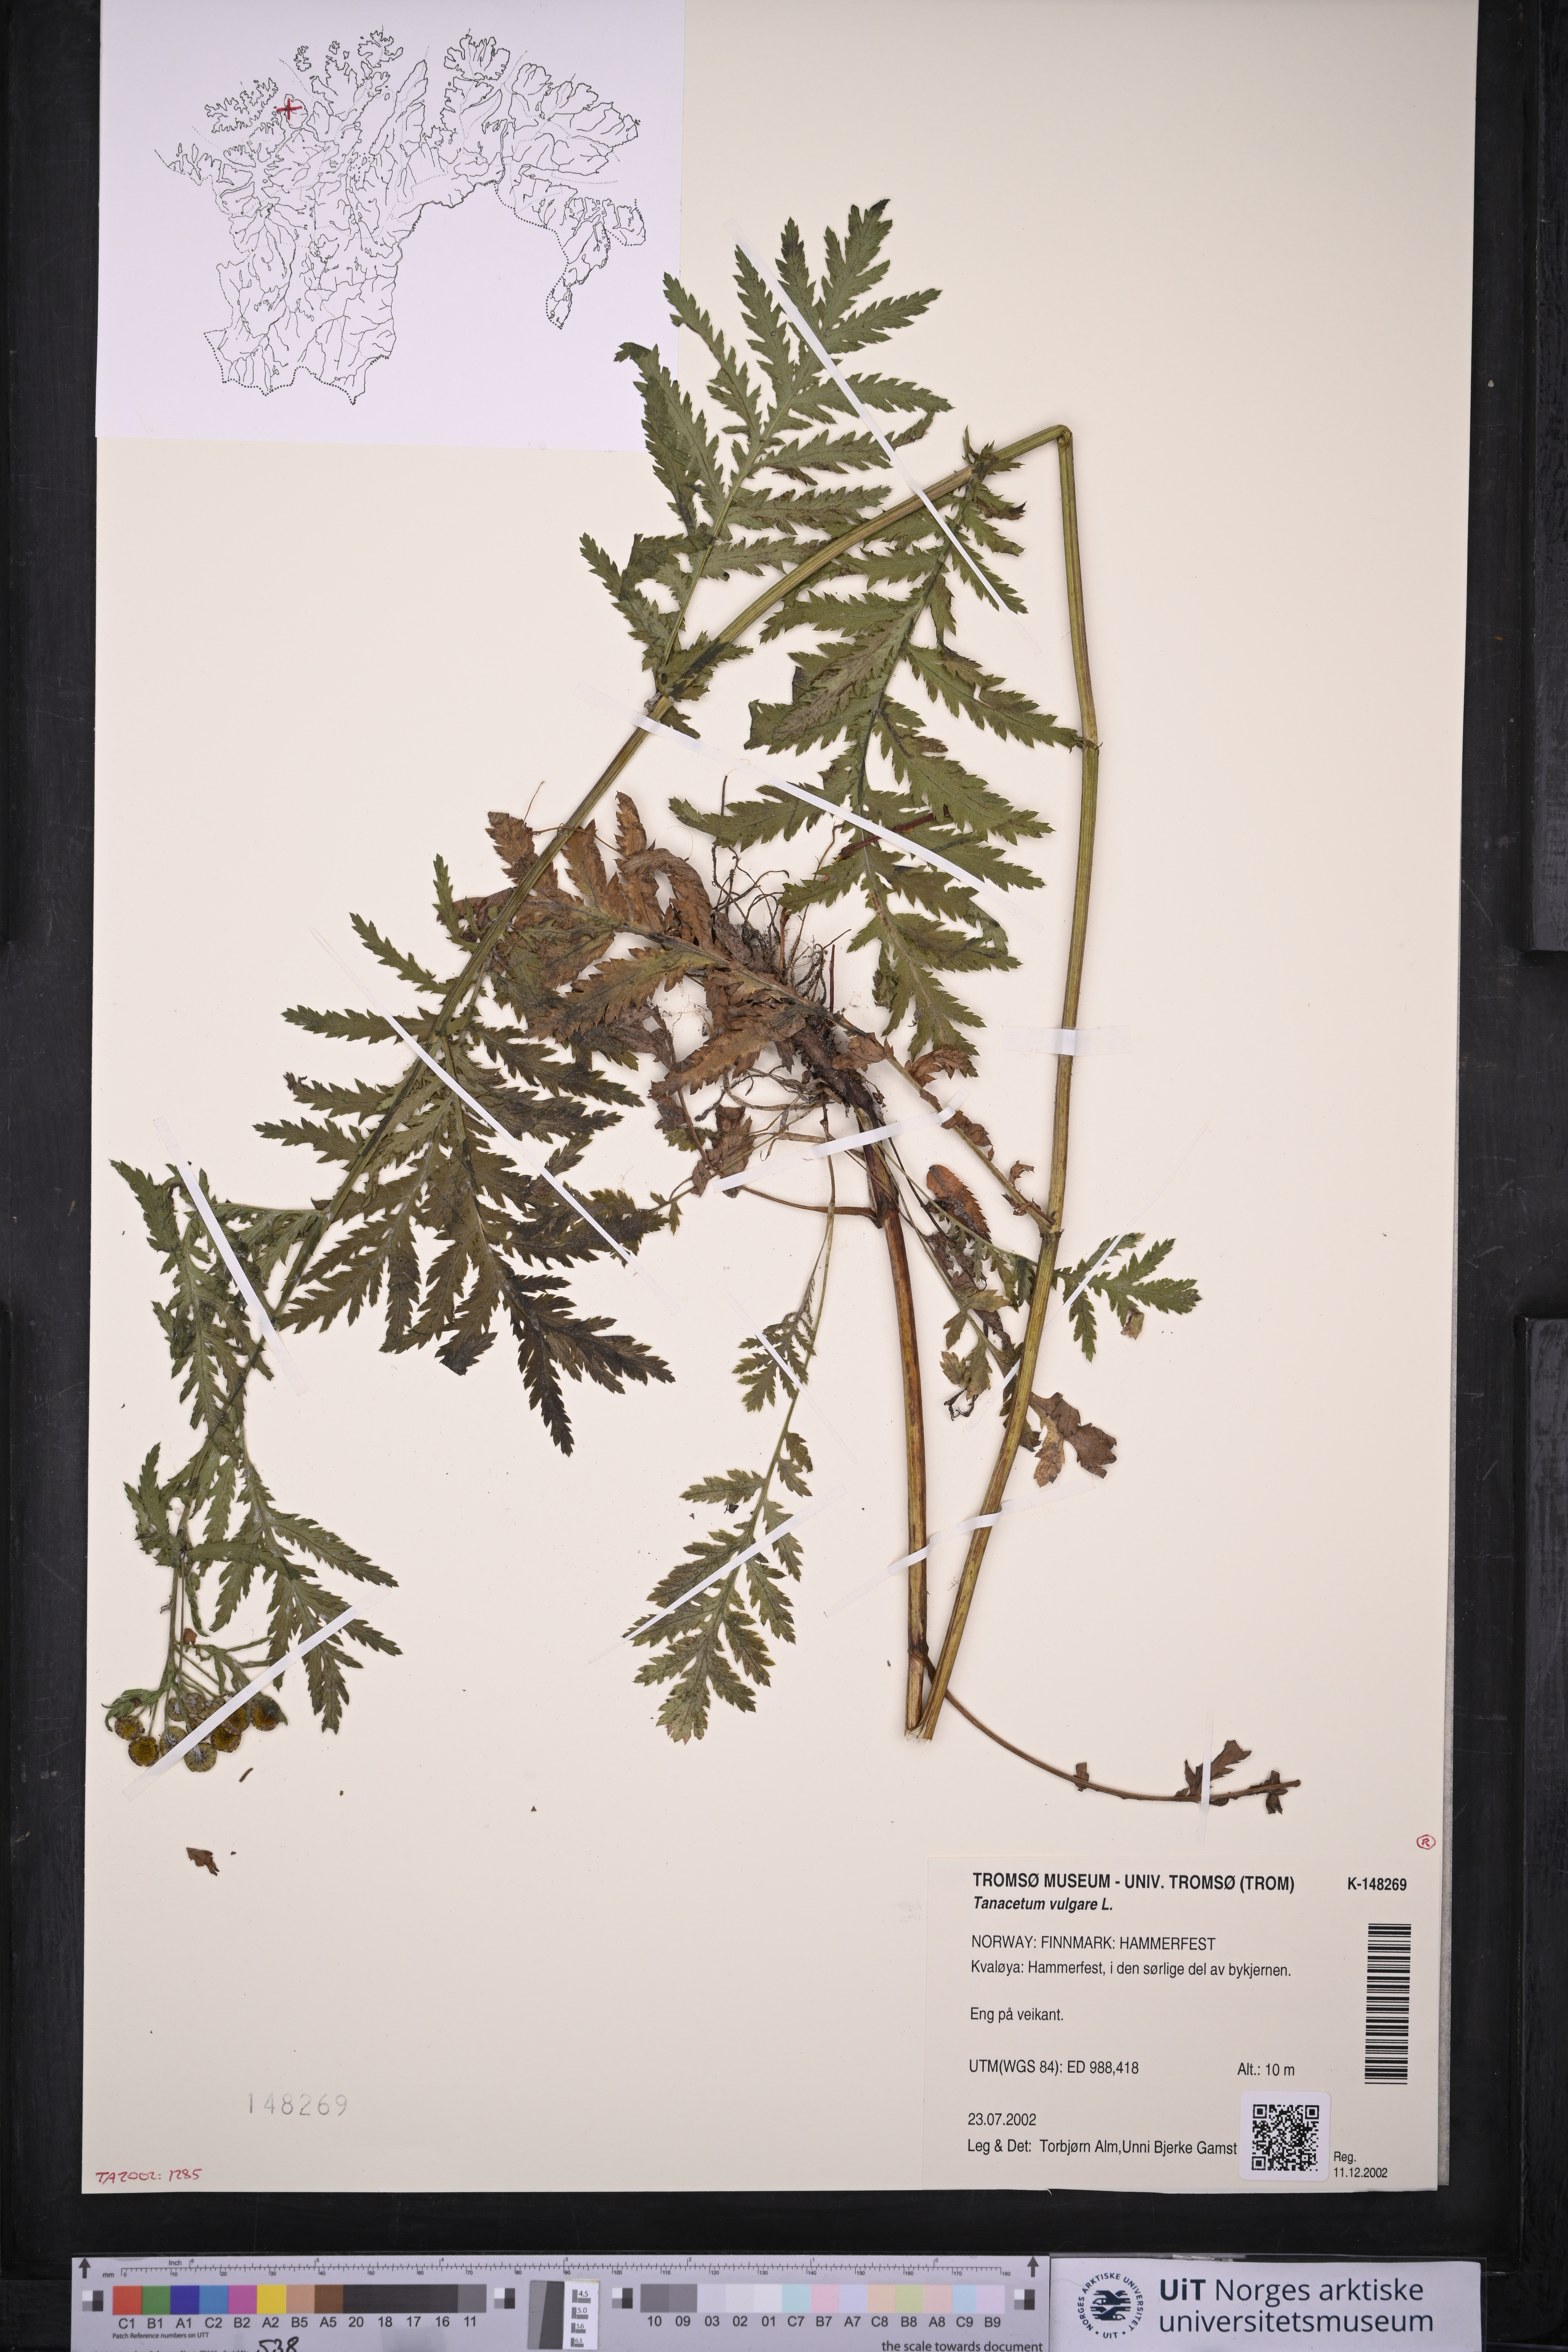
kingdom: Plantae
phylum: Tracheophyta
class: Magnoliopsida
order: Asterales
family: Asteraceae
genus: Tanacetum
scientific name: Tanacetum vulgare
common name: Common tansy
